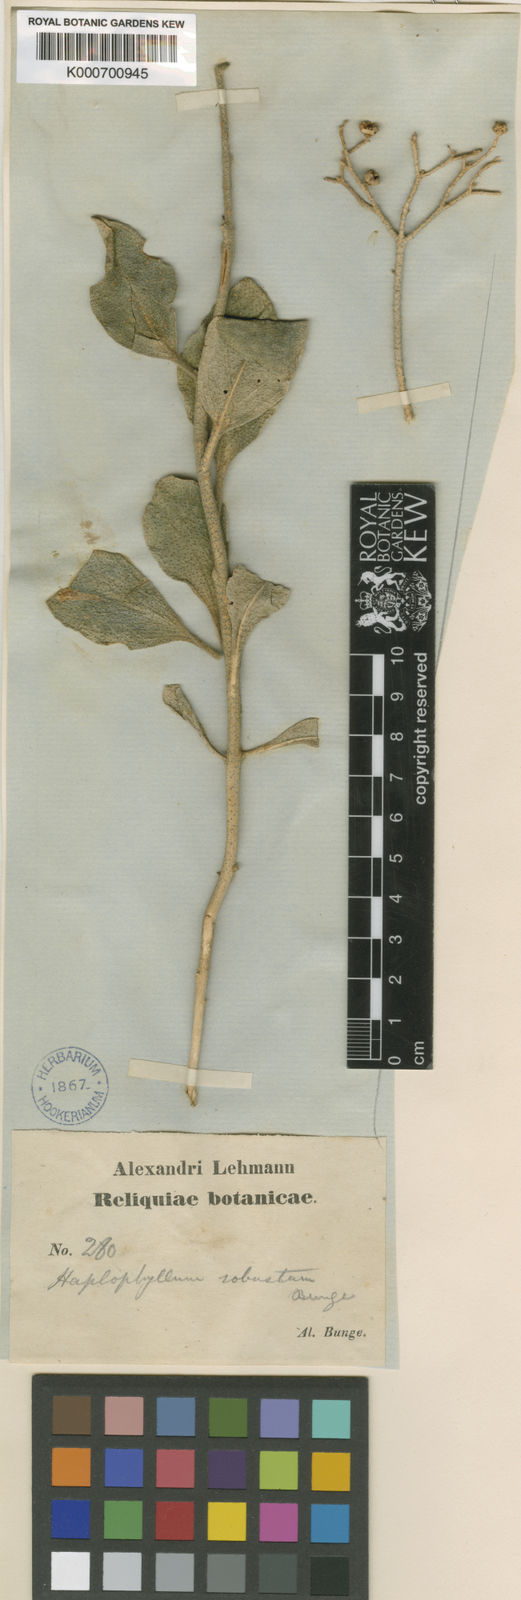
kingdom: Plantae
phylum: Tracheophyta
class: Magnoliopsida
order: Sapindales
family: Rutaceae
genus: Haplophyllum
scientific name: Haplophyllum robustum
